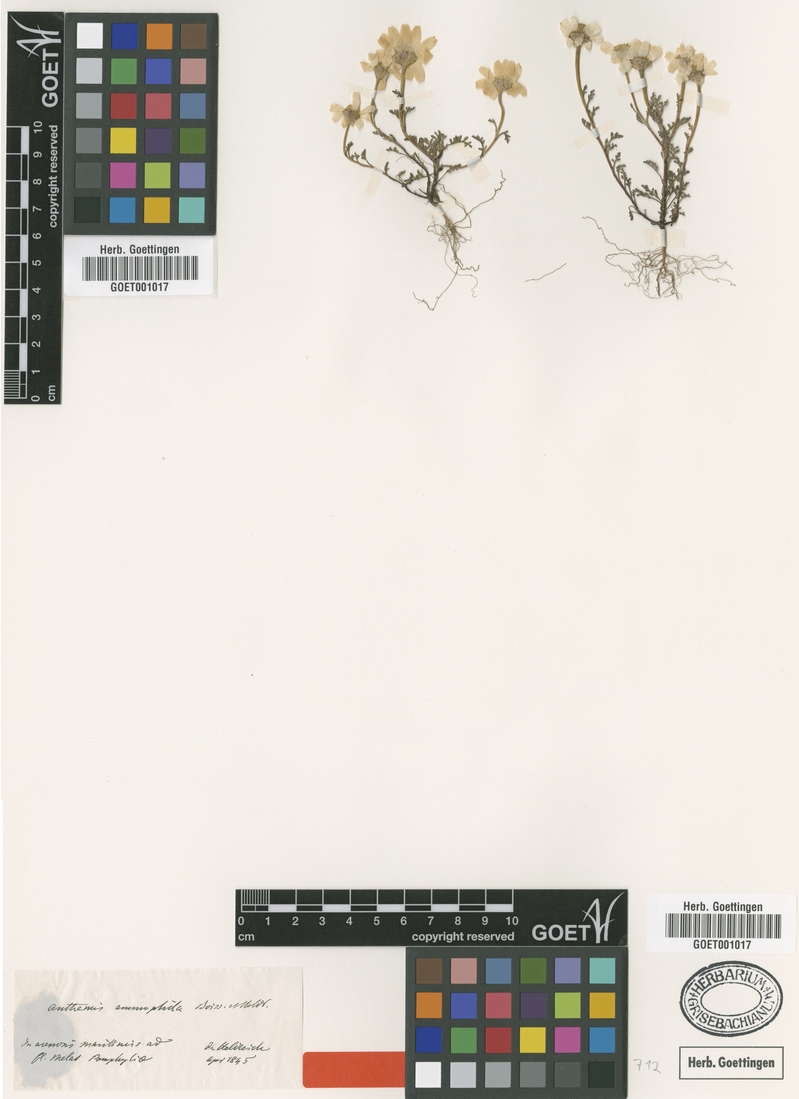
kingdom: Plantae
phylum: Tracheophyta
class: Magnoliopsida
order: Asterales
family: Asteraceae
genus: Anthemis
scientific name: Anthemis ammophila
